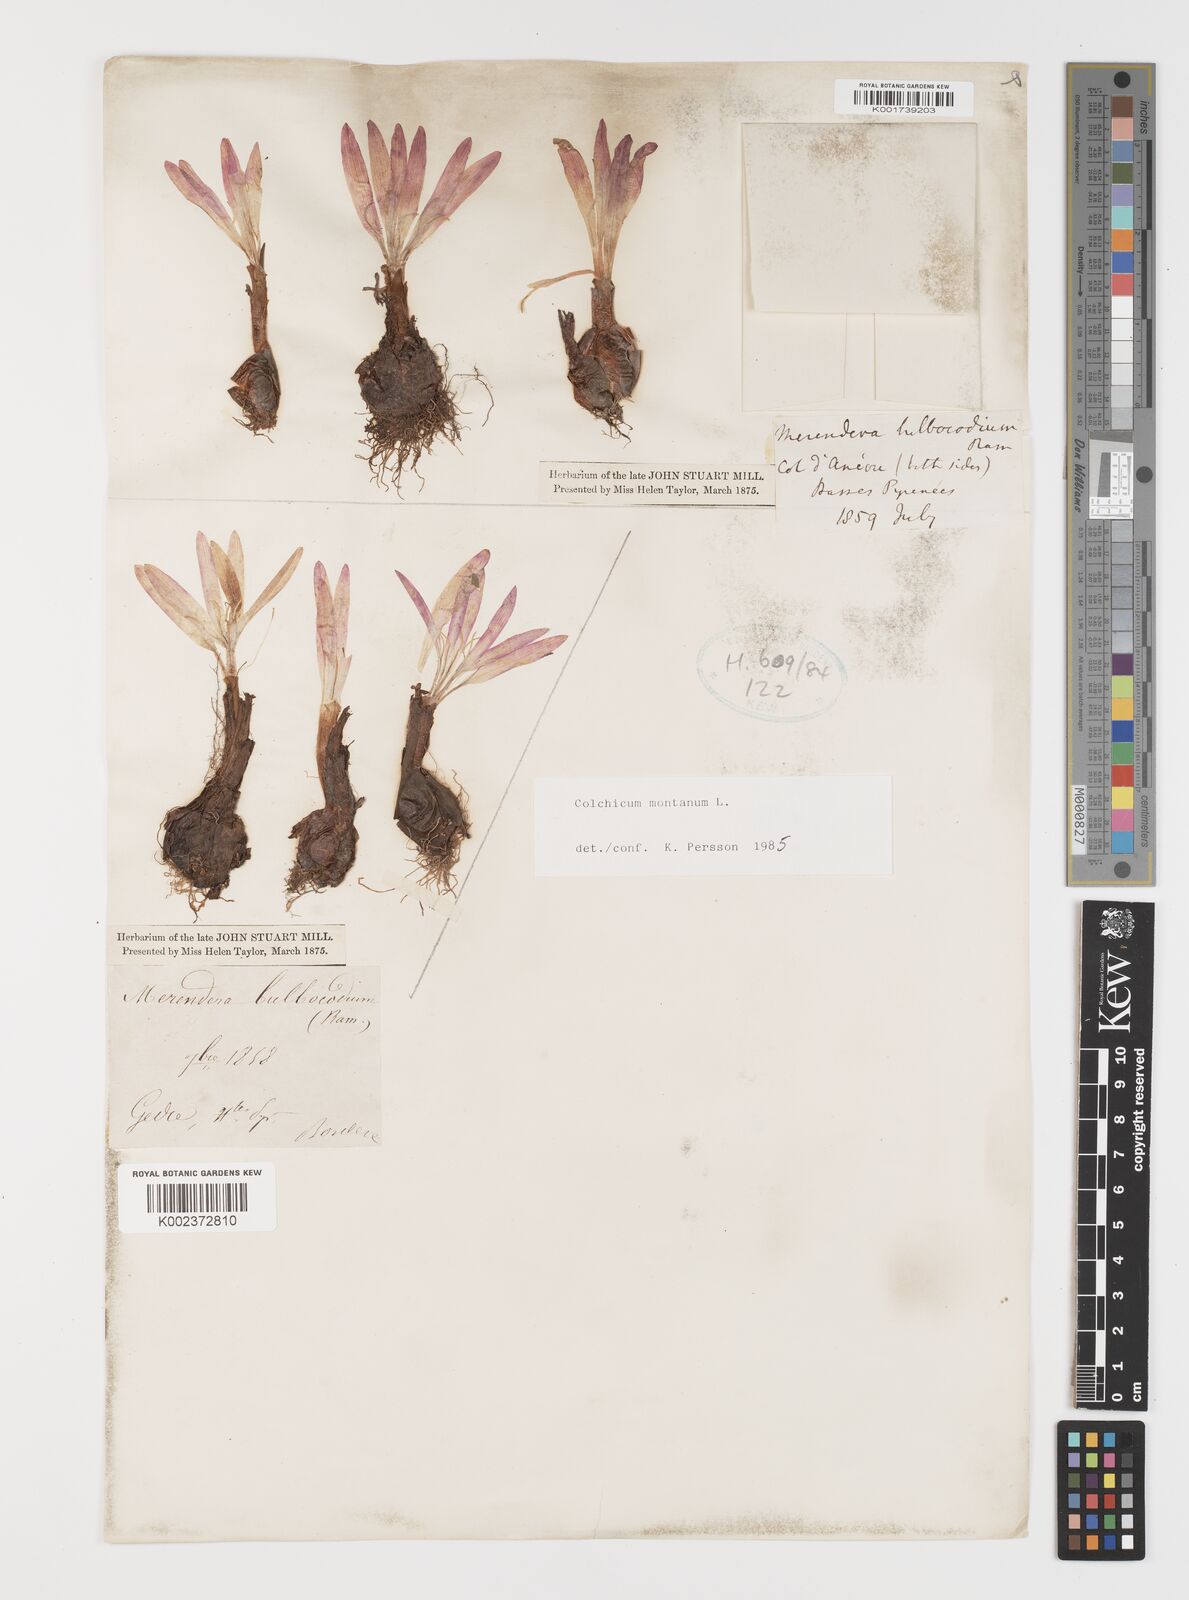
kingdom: Plantae
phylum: Tracheophyta
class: Liliopsida
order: Liliales
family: Colchicaceae
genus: Colchicum
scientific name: Colchicum montanum
